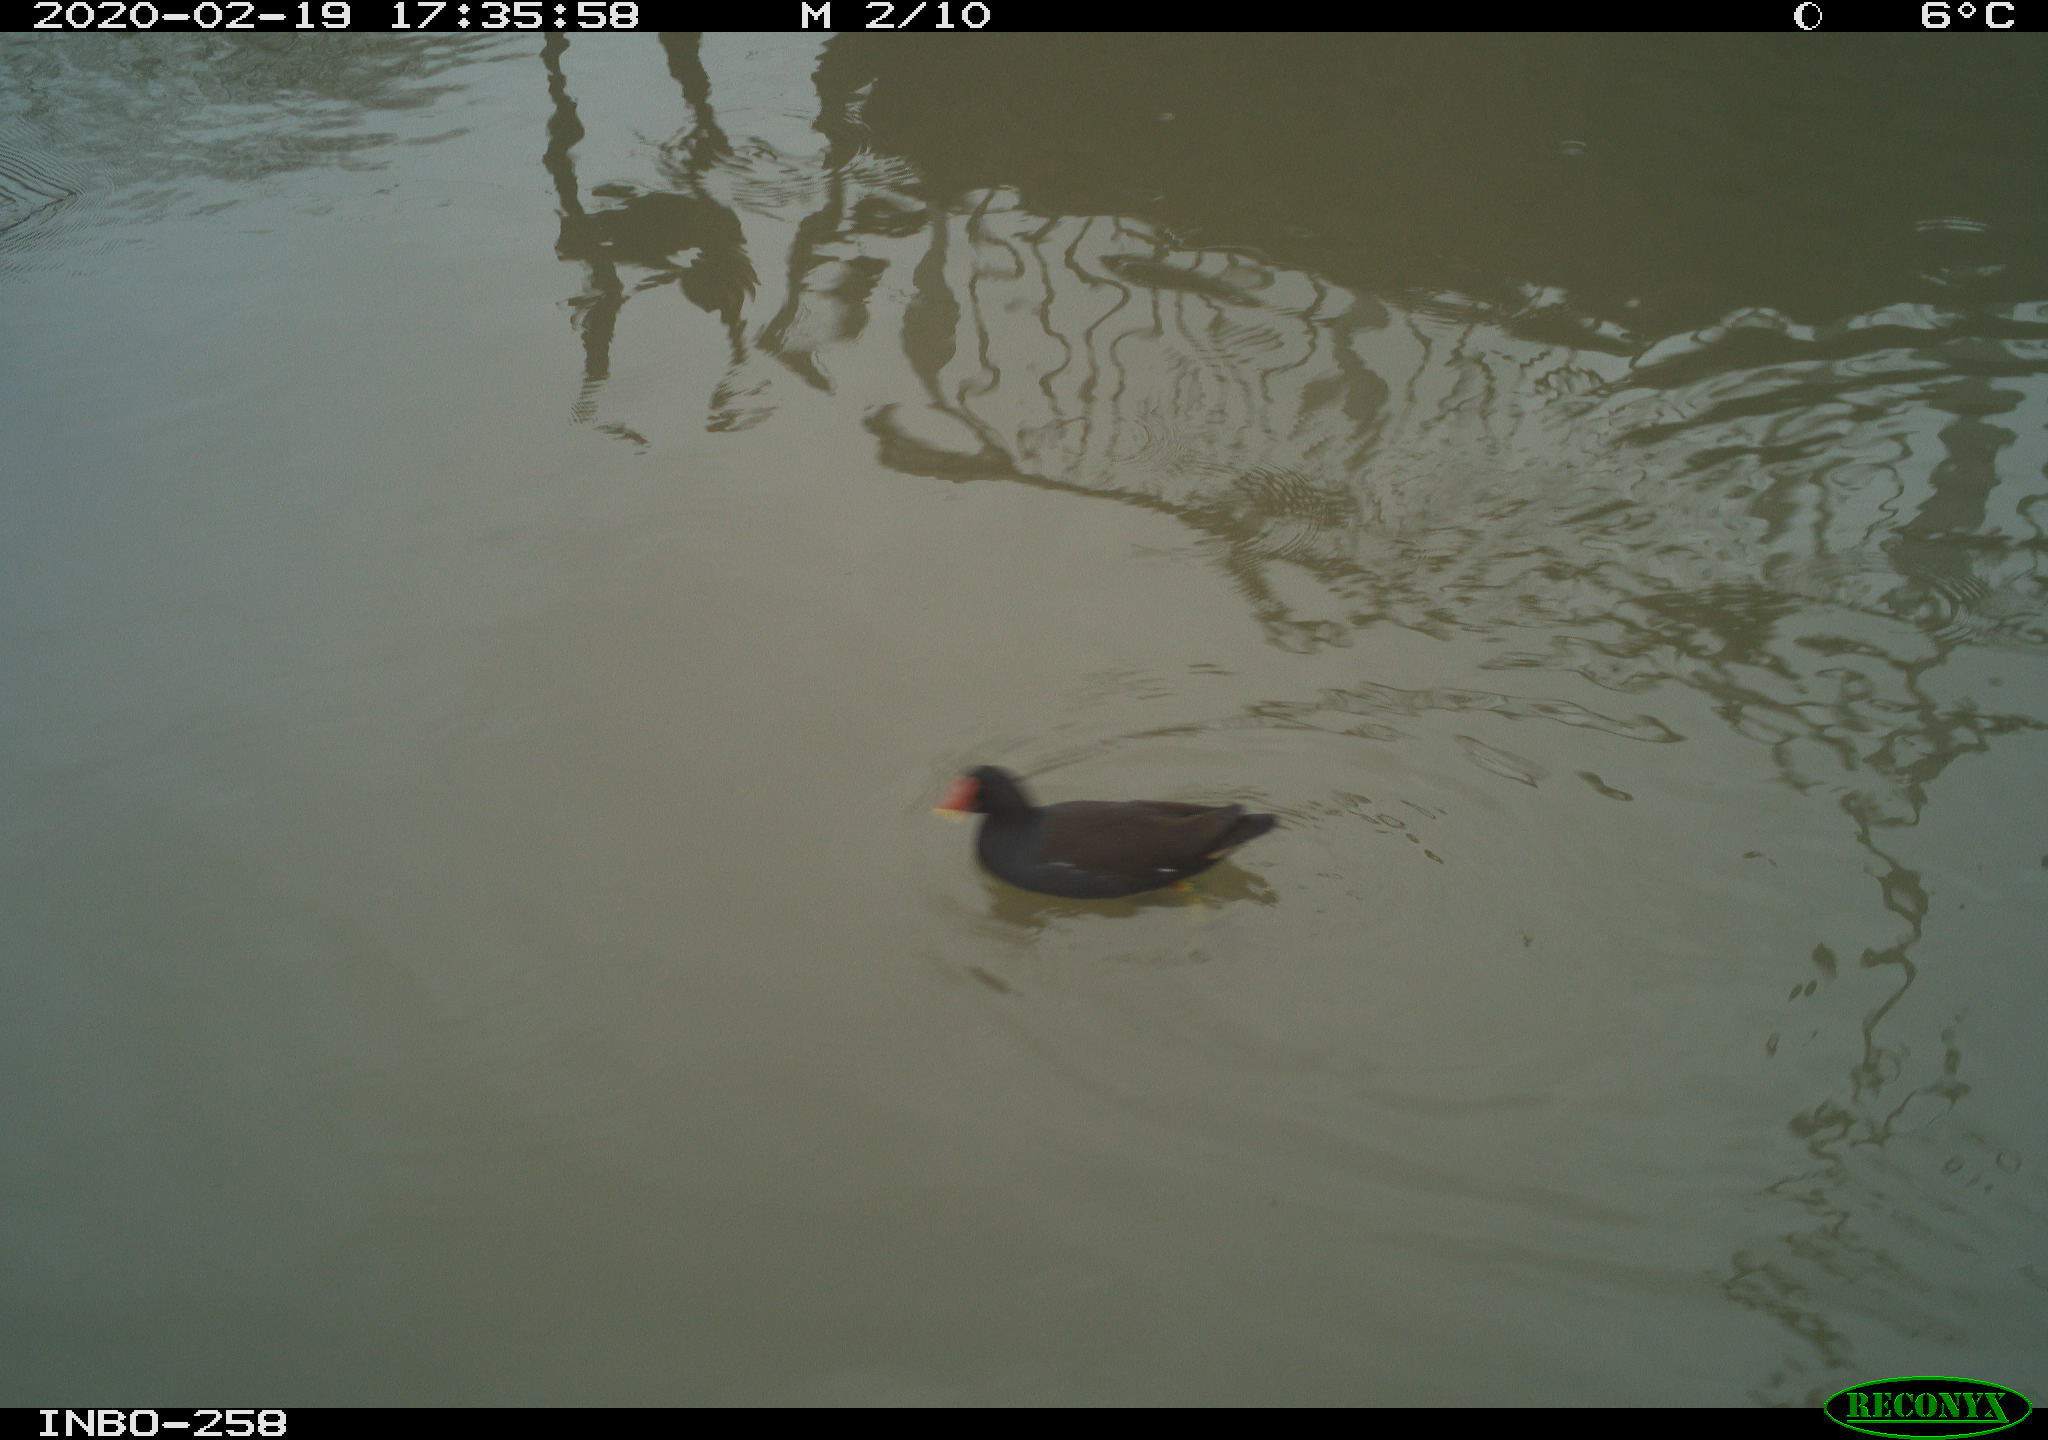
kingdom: Animalia
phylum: Chordata
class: Aves
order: Gruiformes
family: Rallidae
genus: Gallinula
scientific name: Gallinula chloropus
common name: Common moorhen
